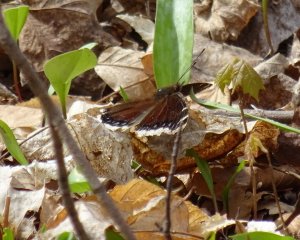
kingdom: Animalia
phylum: Arthropoda
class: Insecta
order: Lepidoptera
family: Nymphalidae
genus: Nymphalis
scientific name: Nymphalis antiopa
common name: Mourning Cloak
